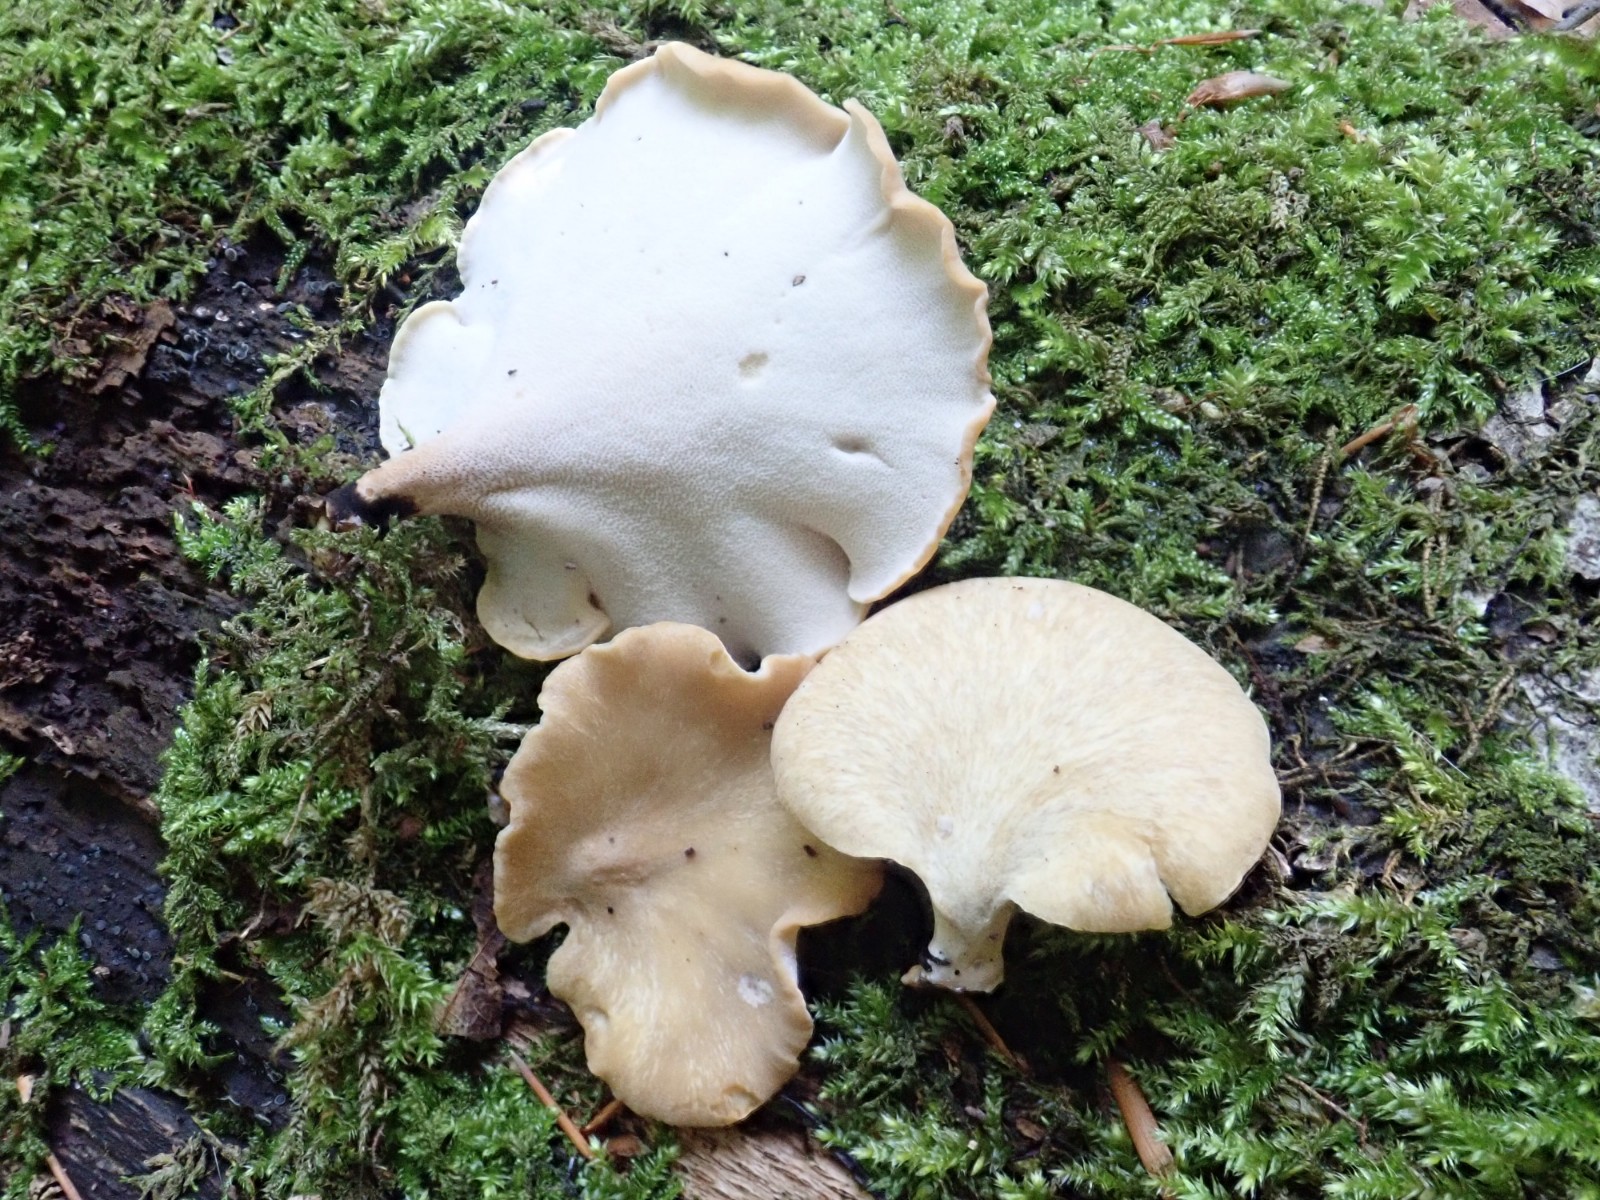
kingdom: Fungi
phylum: Basidiomycota
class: Agaricomycetes
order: Polyporales
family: Polyporaceae
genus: Cerioporus
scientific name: Cerioporus varius
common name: foranderlig stilkporesvamp
